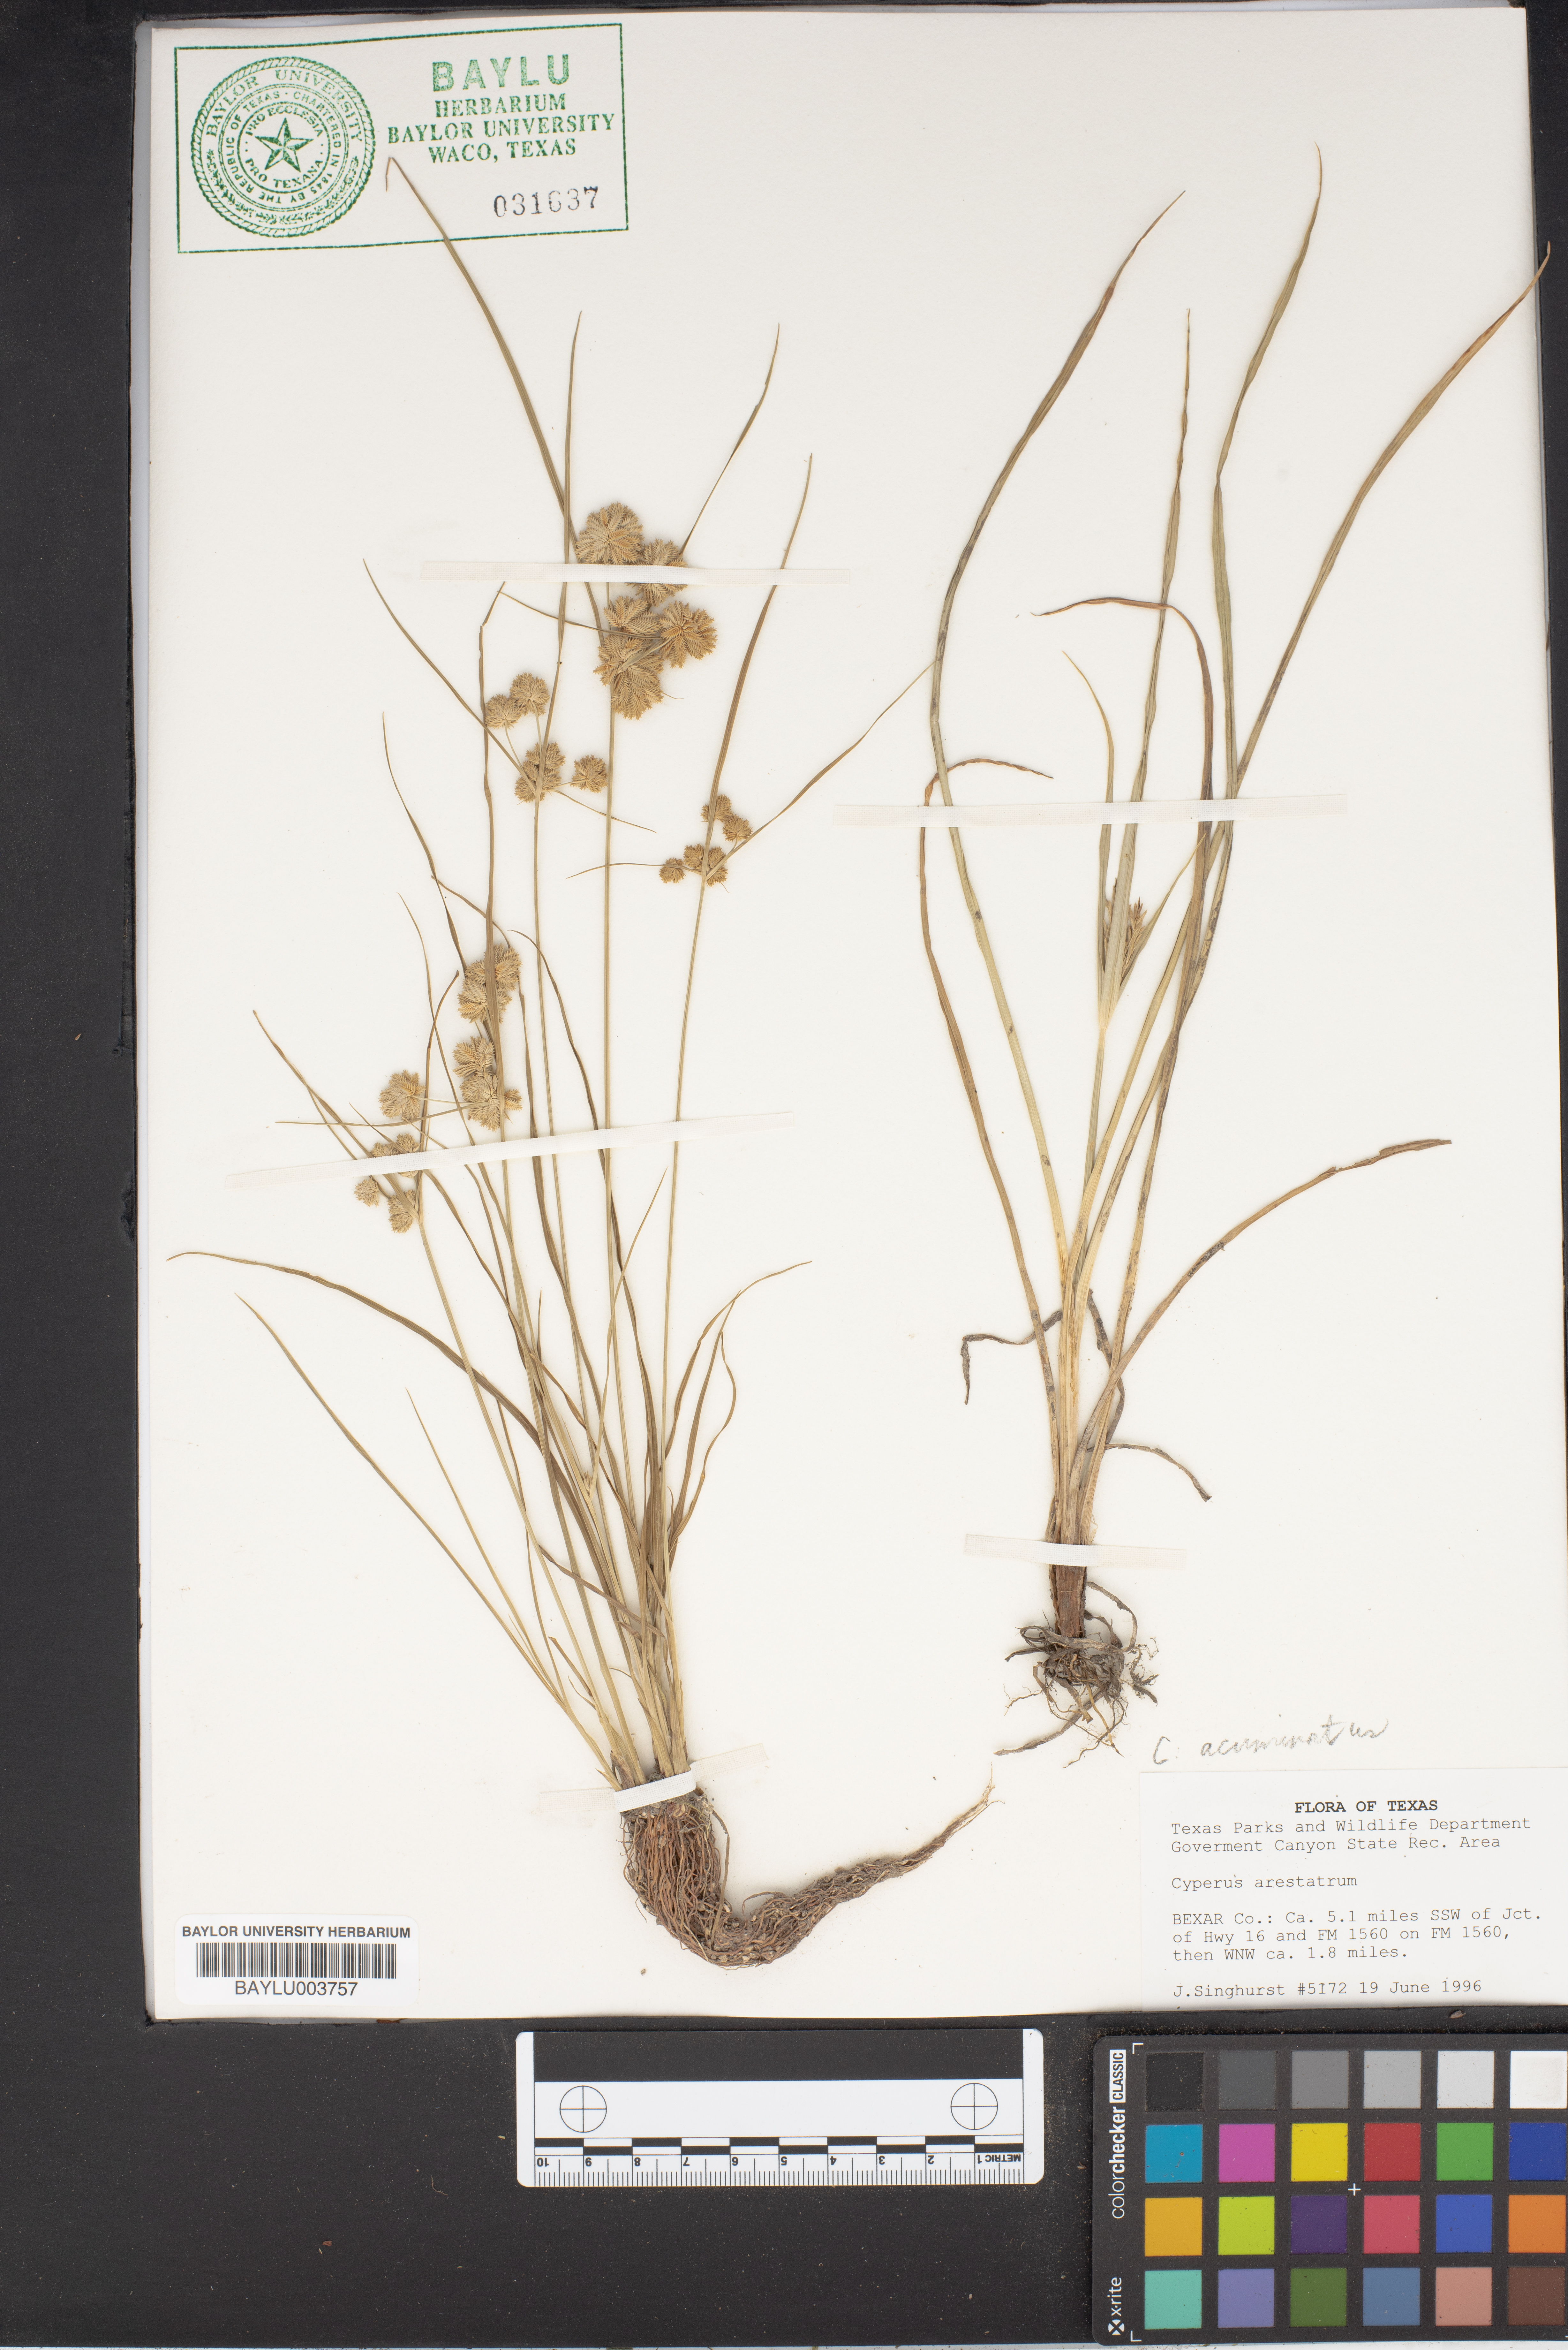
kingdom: Plantae
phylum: Tracheophyta
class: Liliopsida
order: Poales
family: Cyperaceae
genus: Cyperus
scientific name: Cyperus acuminatus
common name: Short-pointed cyperus
